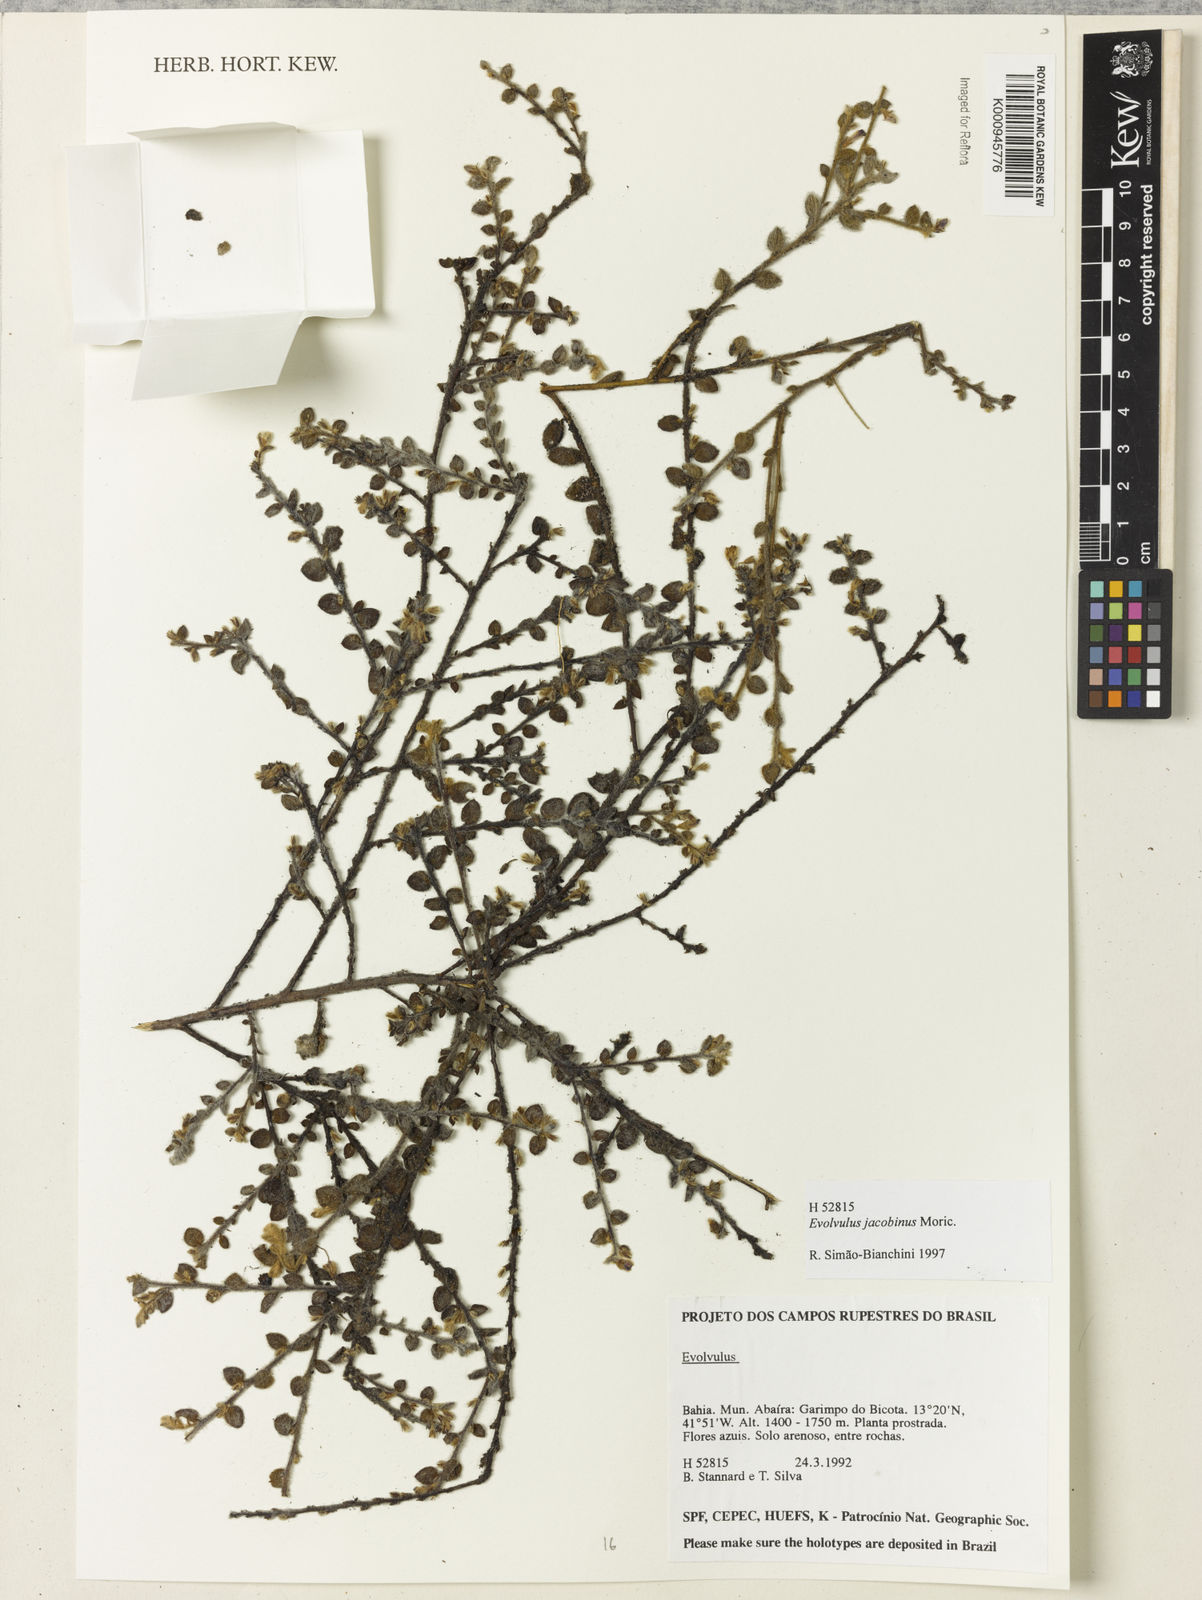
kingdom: Plantae
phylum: Tracheophyta
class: Magnoliopsida
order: Solanales
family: Convolvulaceae
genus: Evolvulus
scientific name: Evolvulus
